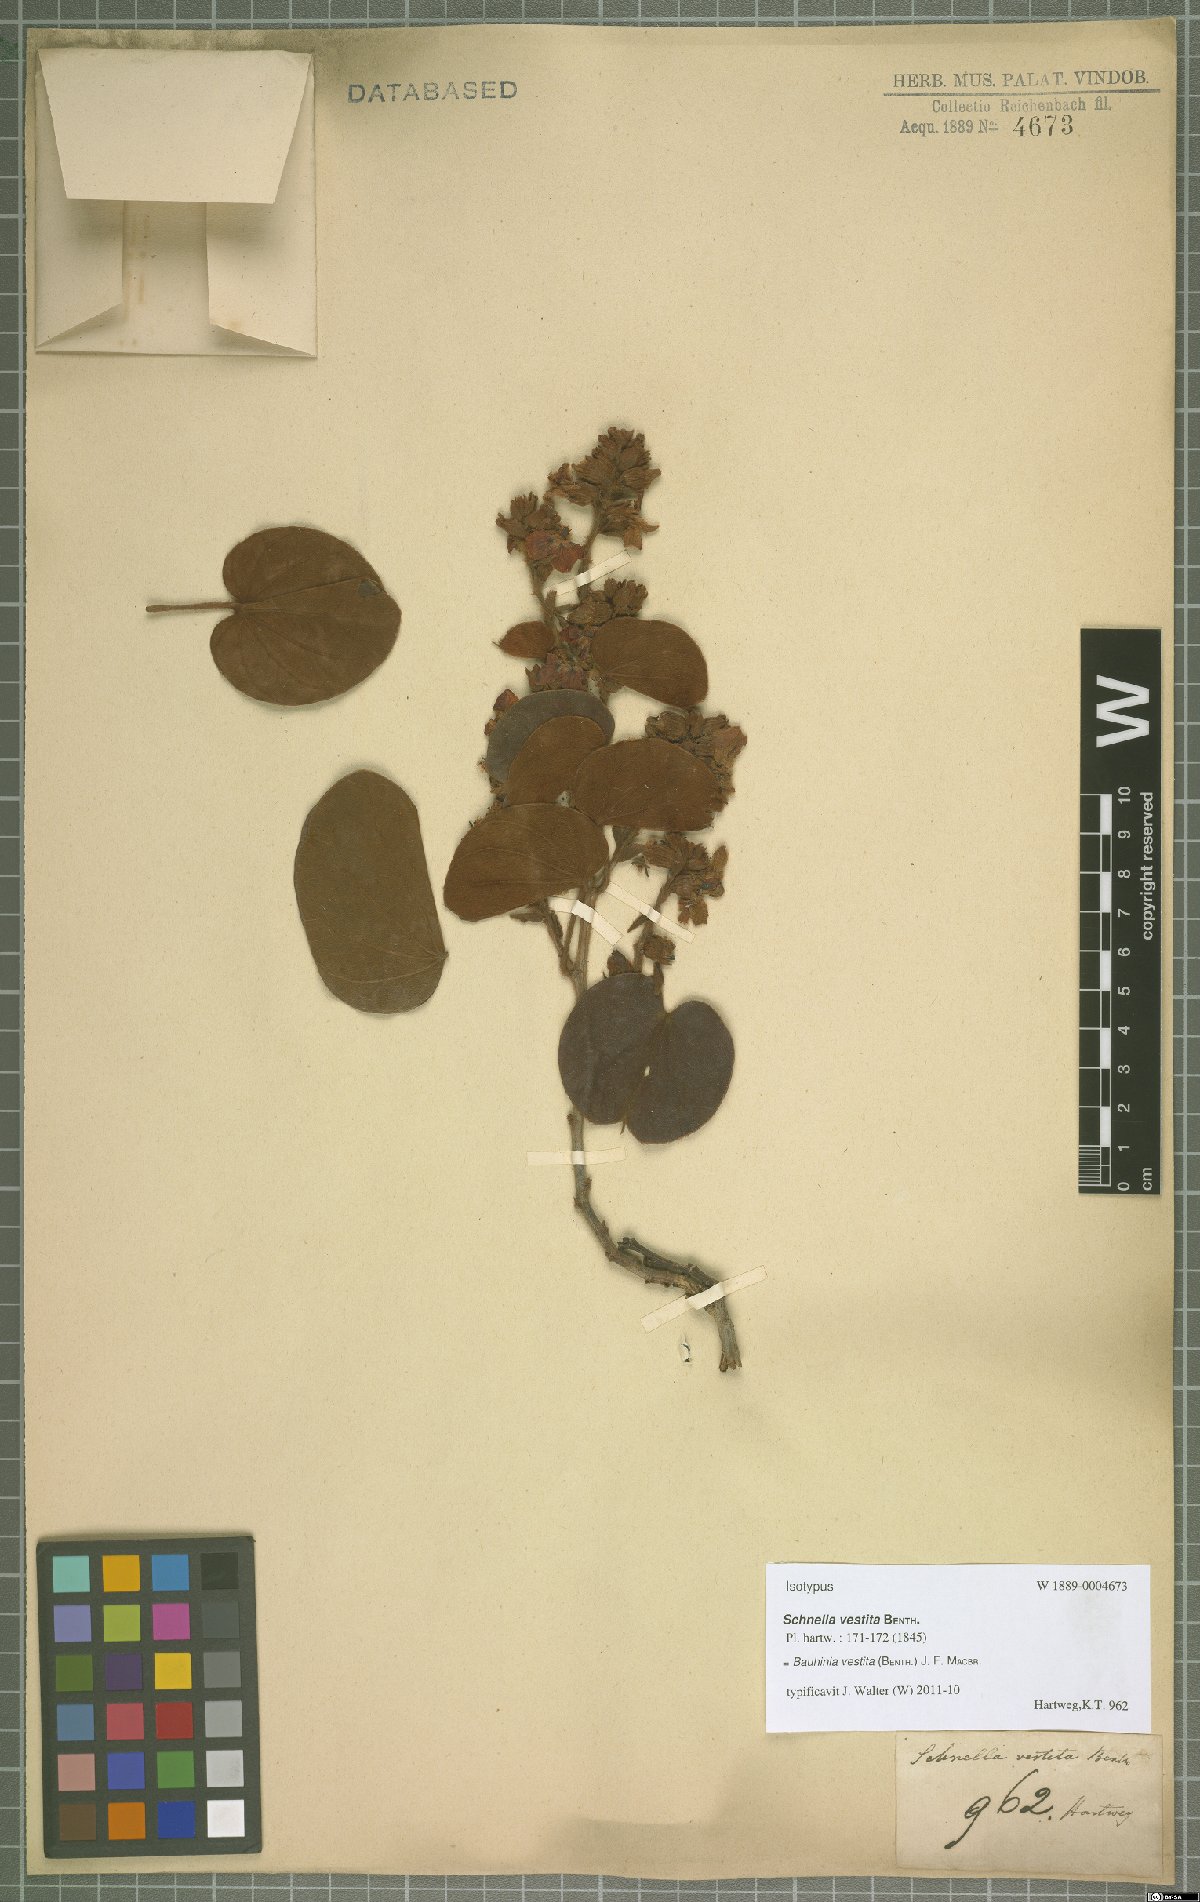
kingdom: Plantae
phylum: Tracheophyta
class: Magnoliopsida
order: Fabales
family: Fabaceae
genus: Schnella
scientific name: Schnella vestita
